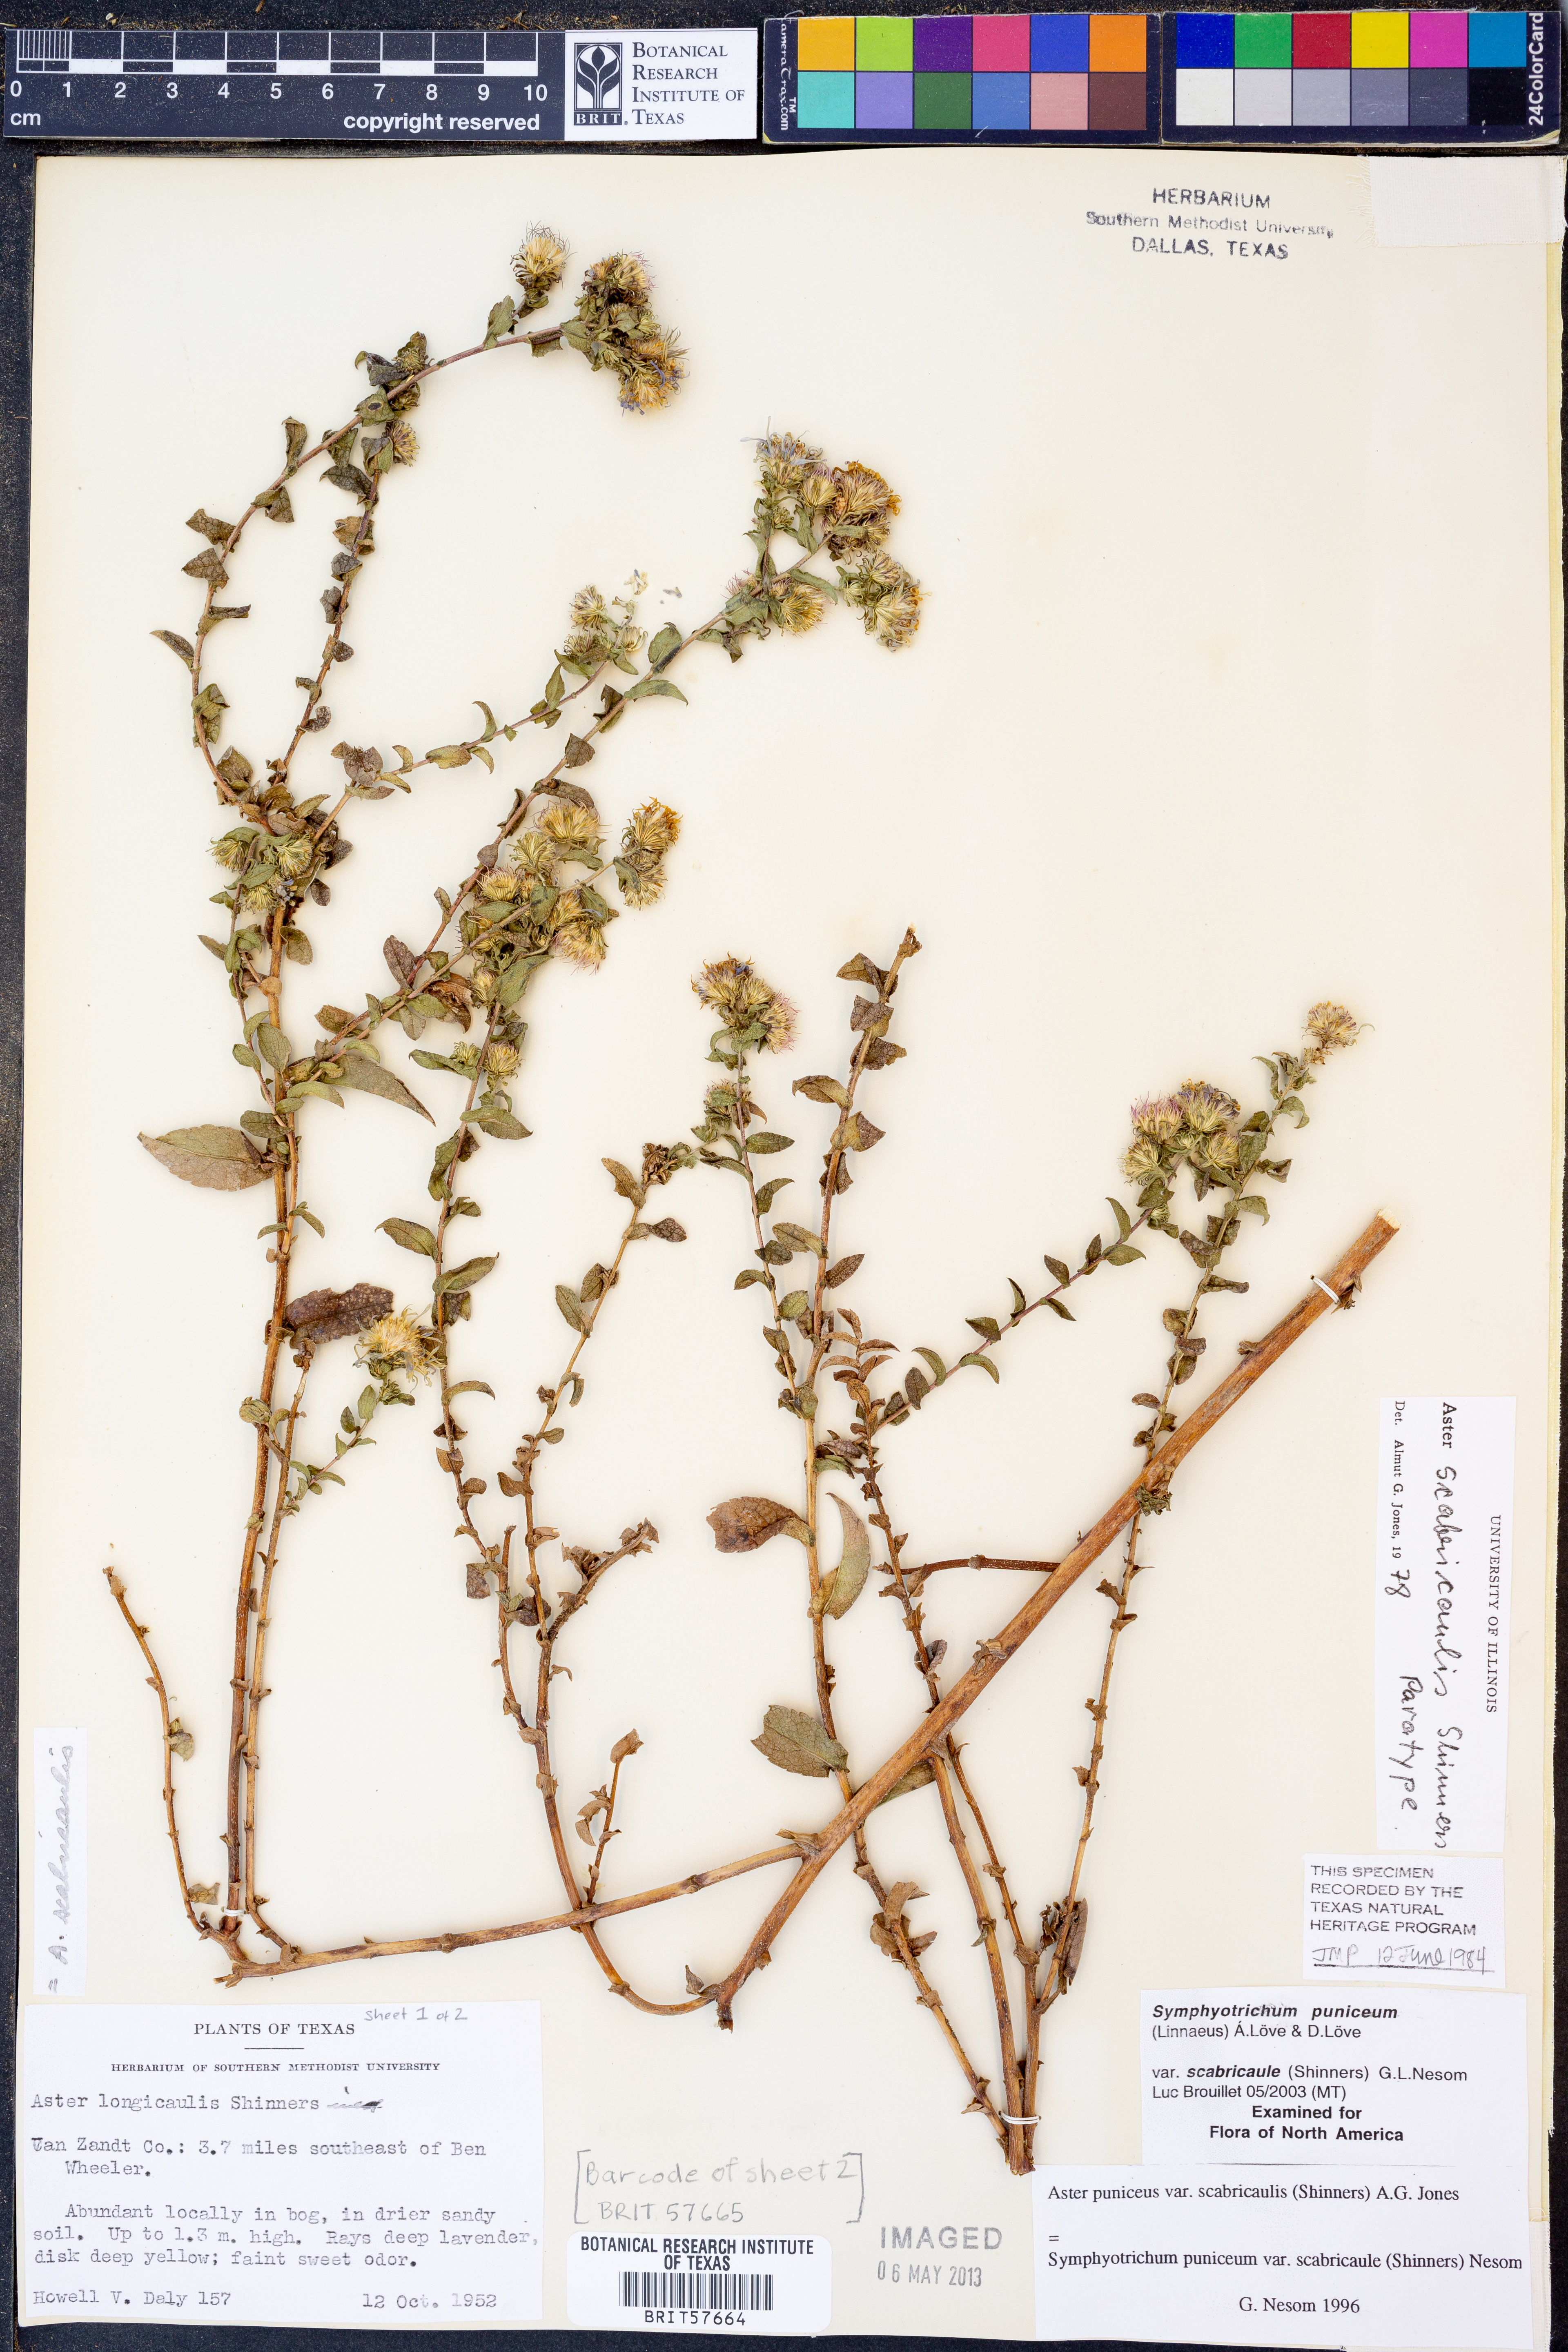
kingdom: Plantae
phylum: Tracheophyta
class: Magnoliopsida
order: Asterales
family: Asteraceae
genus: Symphyotrichum
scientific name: Symphyotrichum puniceum
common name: Bog aster
